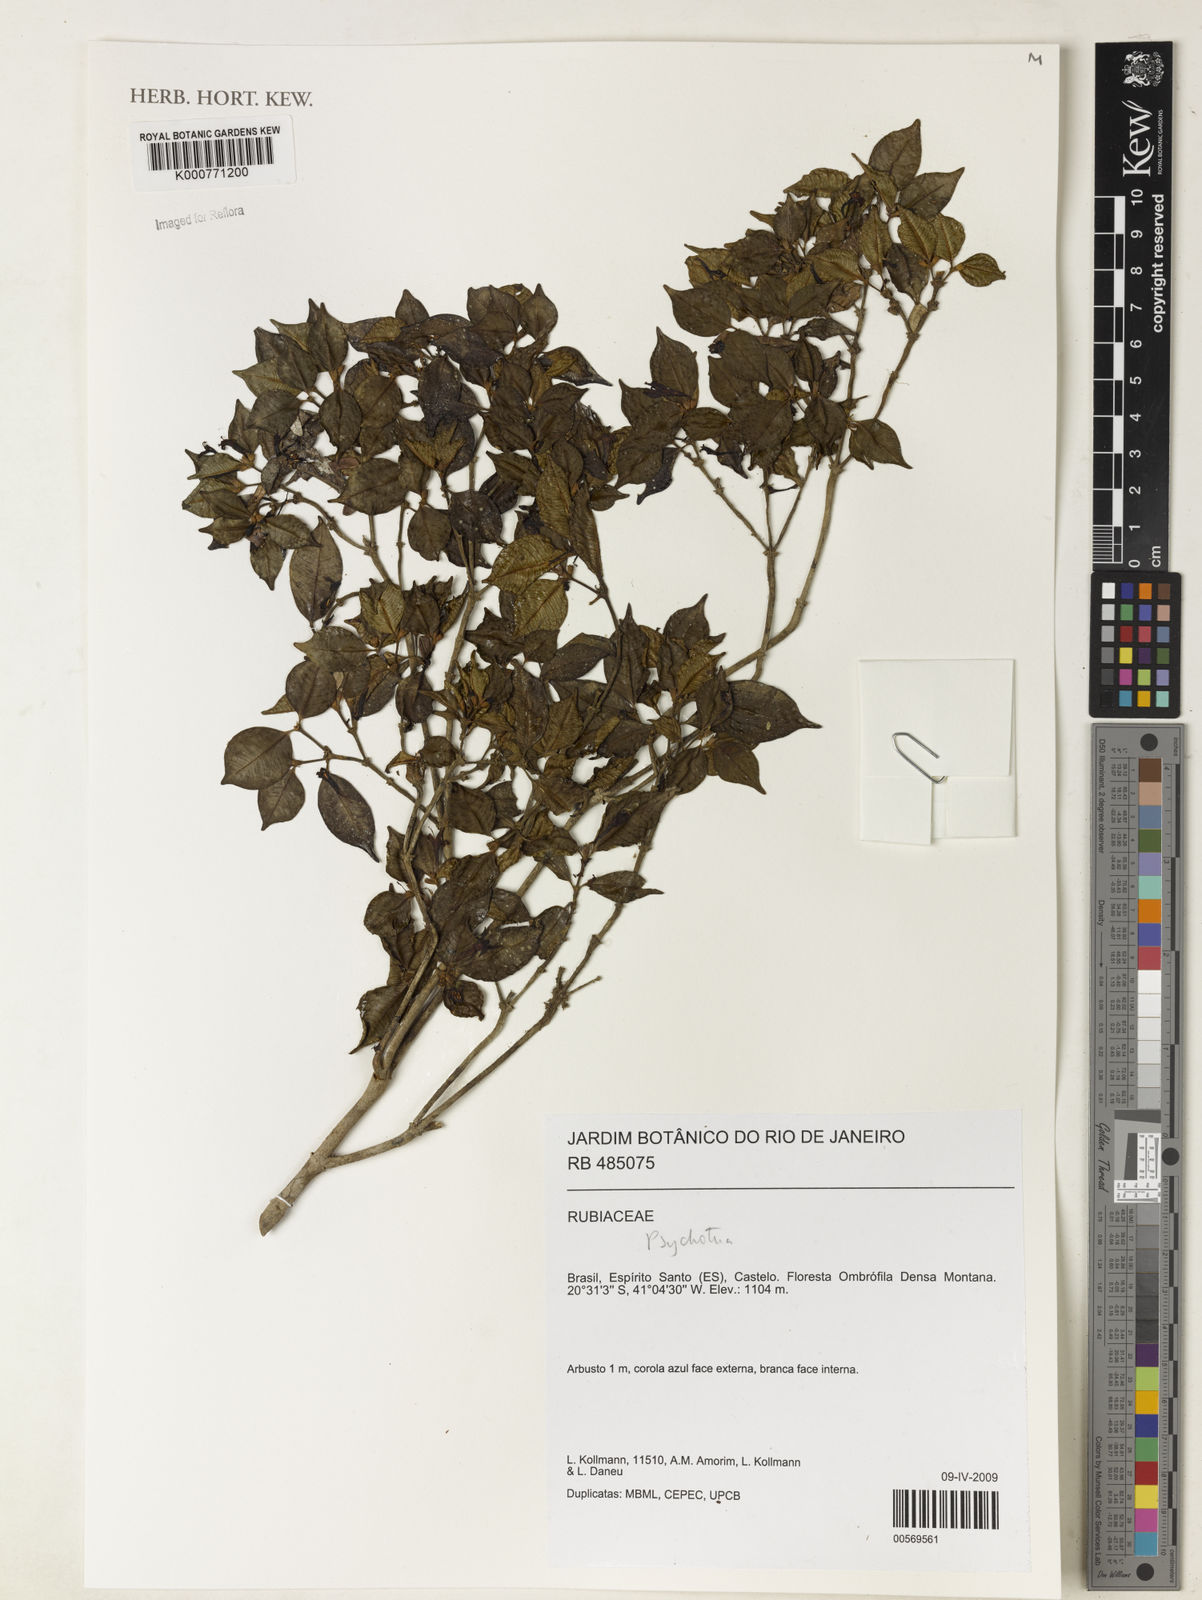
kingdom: Plantae
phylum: Tracheophyta
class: Magnoliopsida
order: Gentianales
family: Rubiaceae
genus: Psychotria
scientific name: Psychotria
